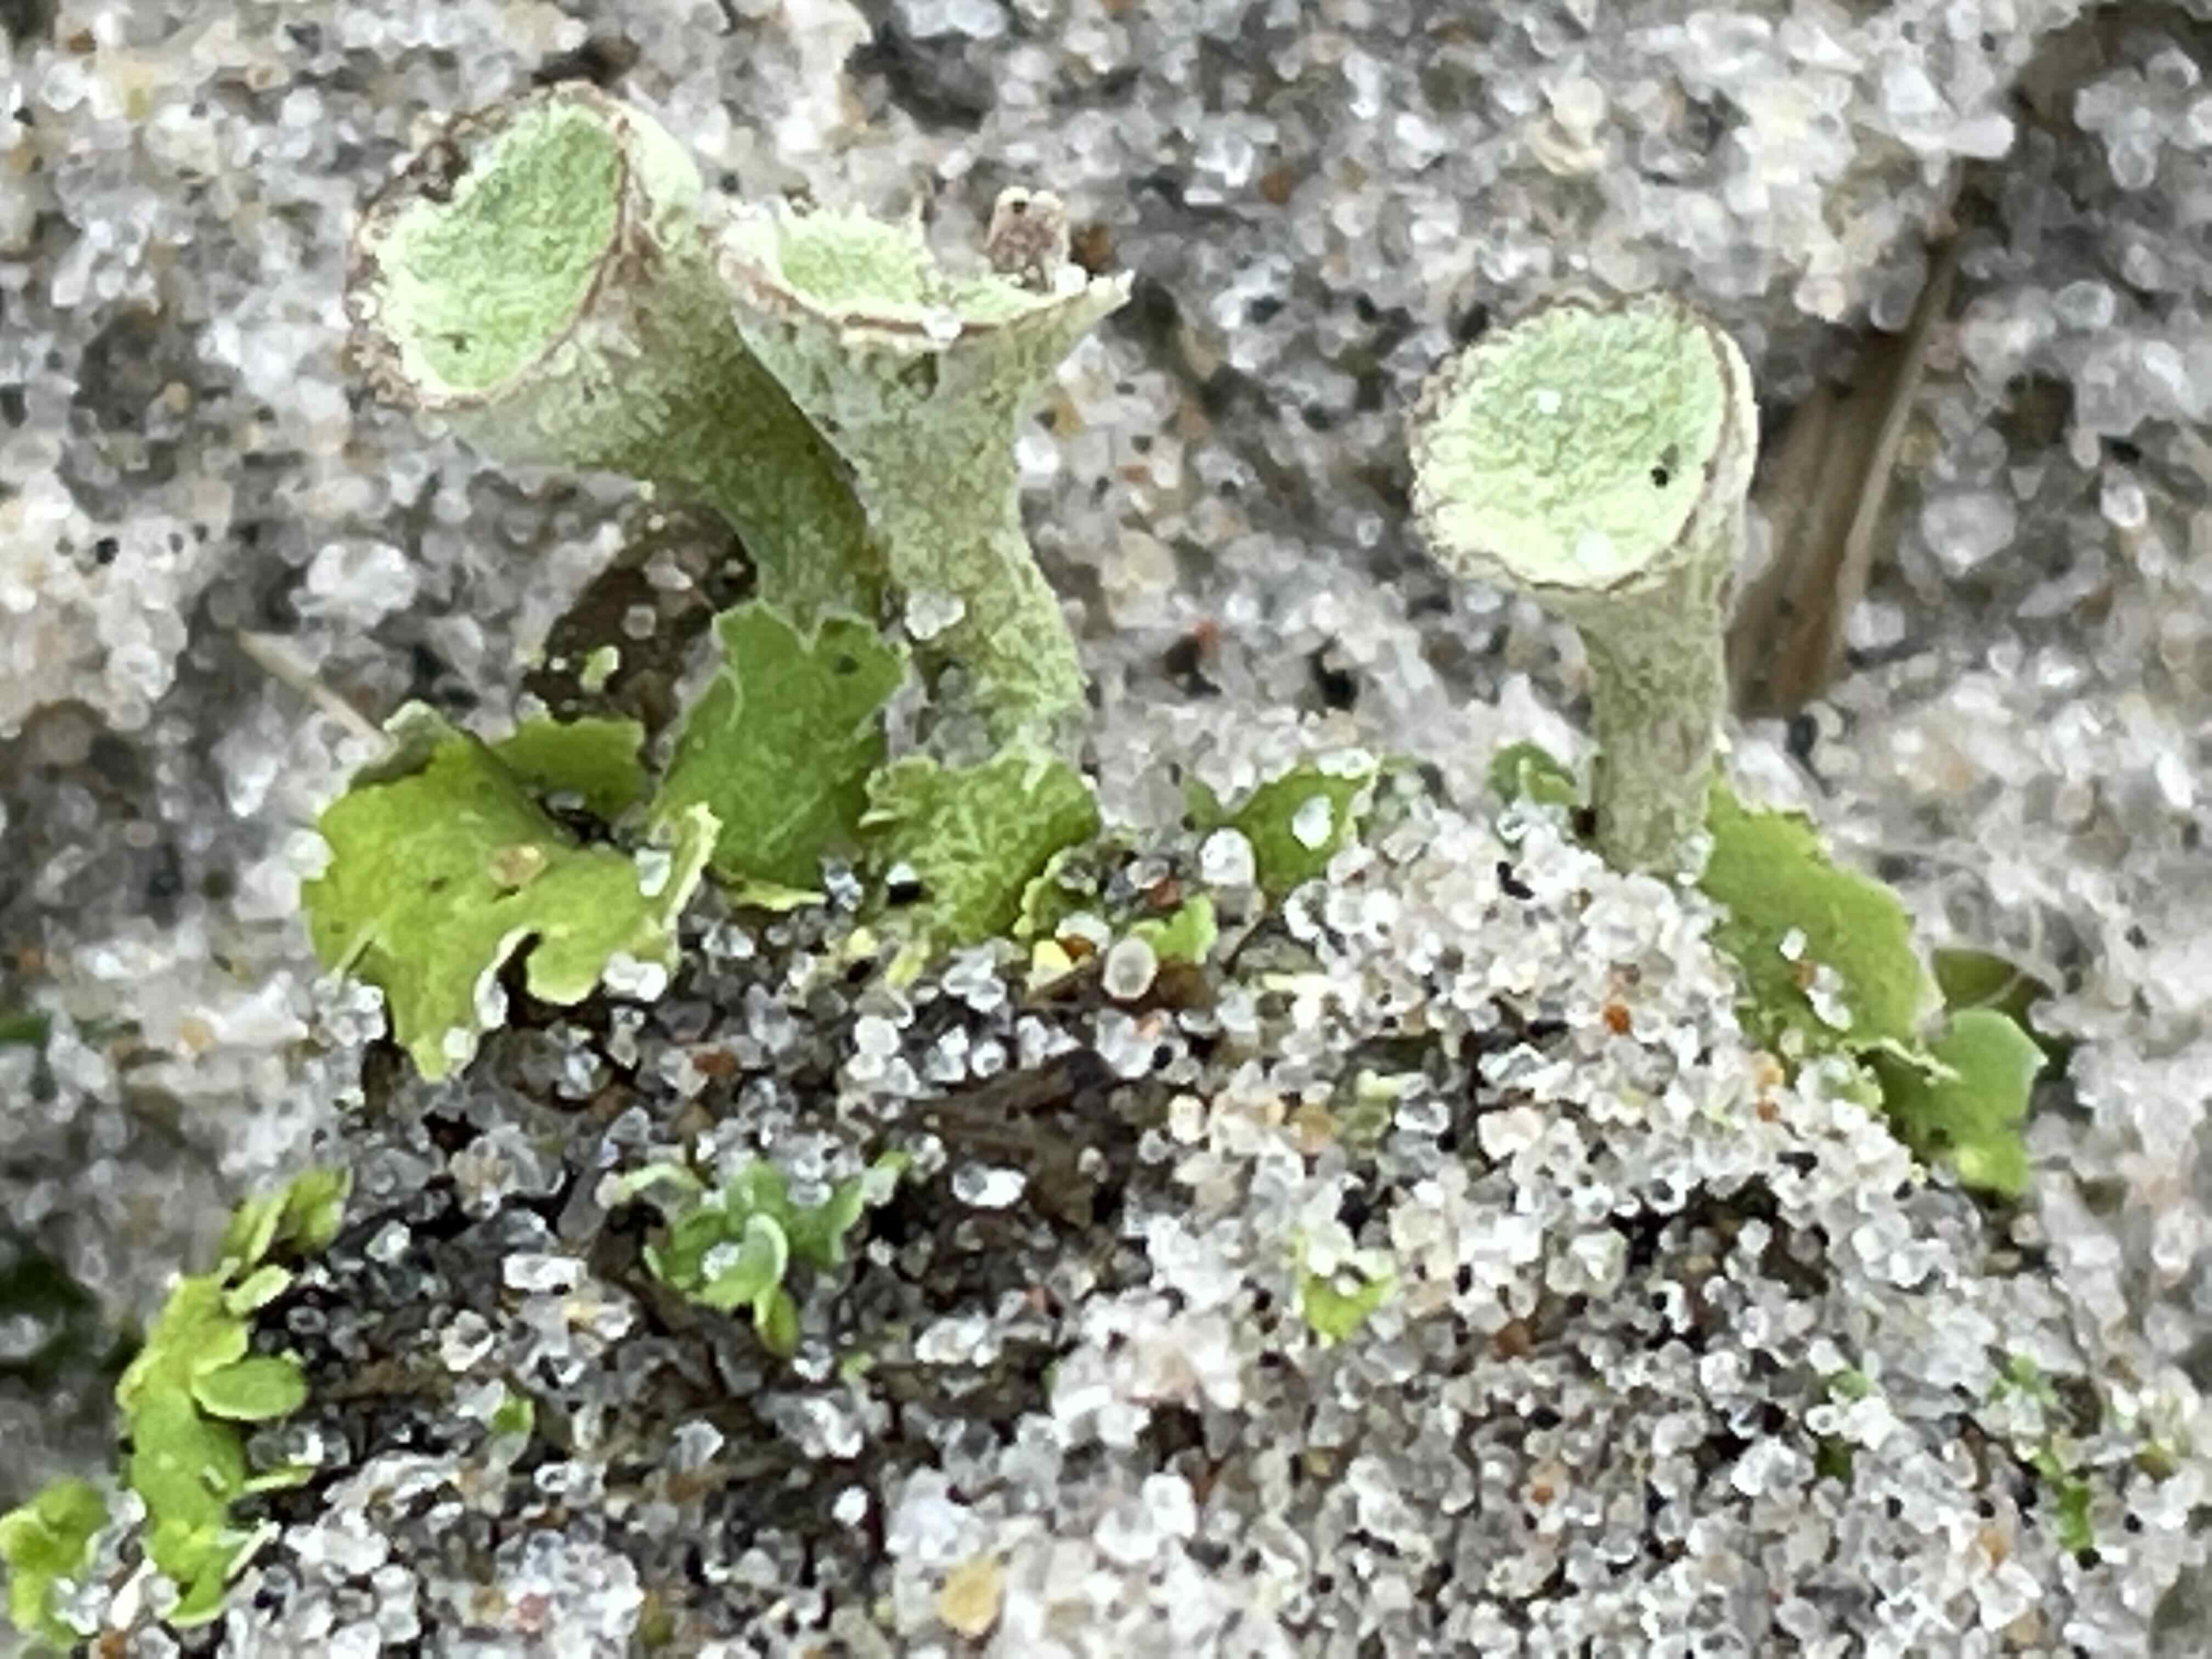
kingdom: Fungi
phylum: Ascomycota
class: Lecanoromycetes
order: Lecanorales
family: Cladoniaceae
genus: Cladonia
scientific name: Cladonia humilis
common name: lav bægerlav
